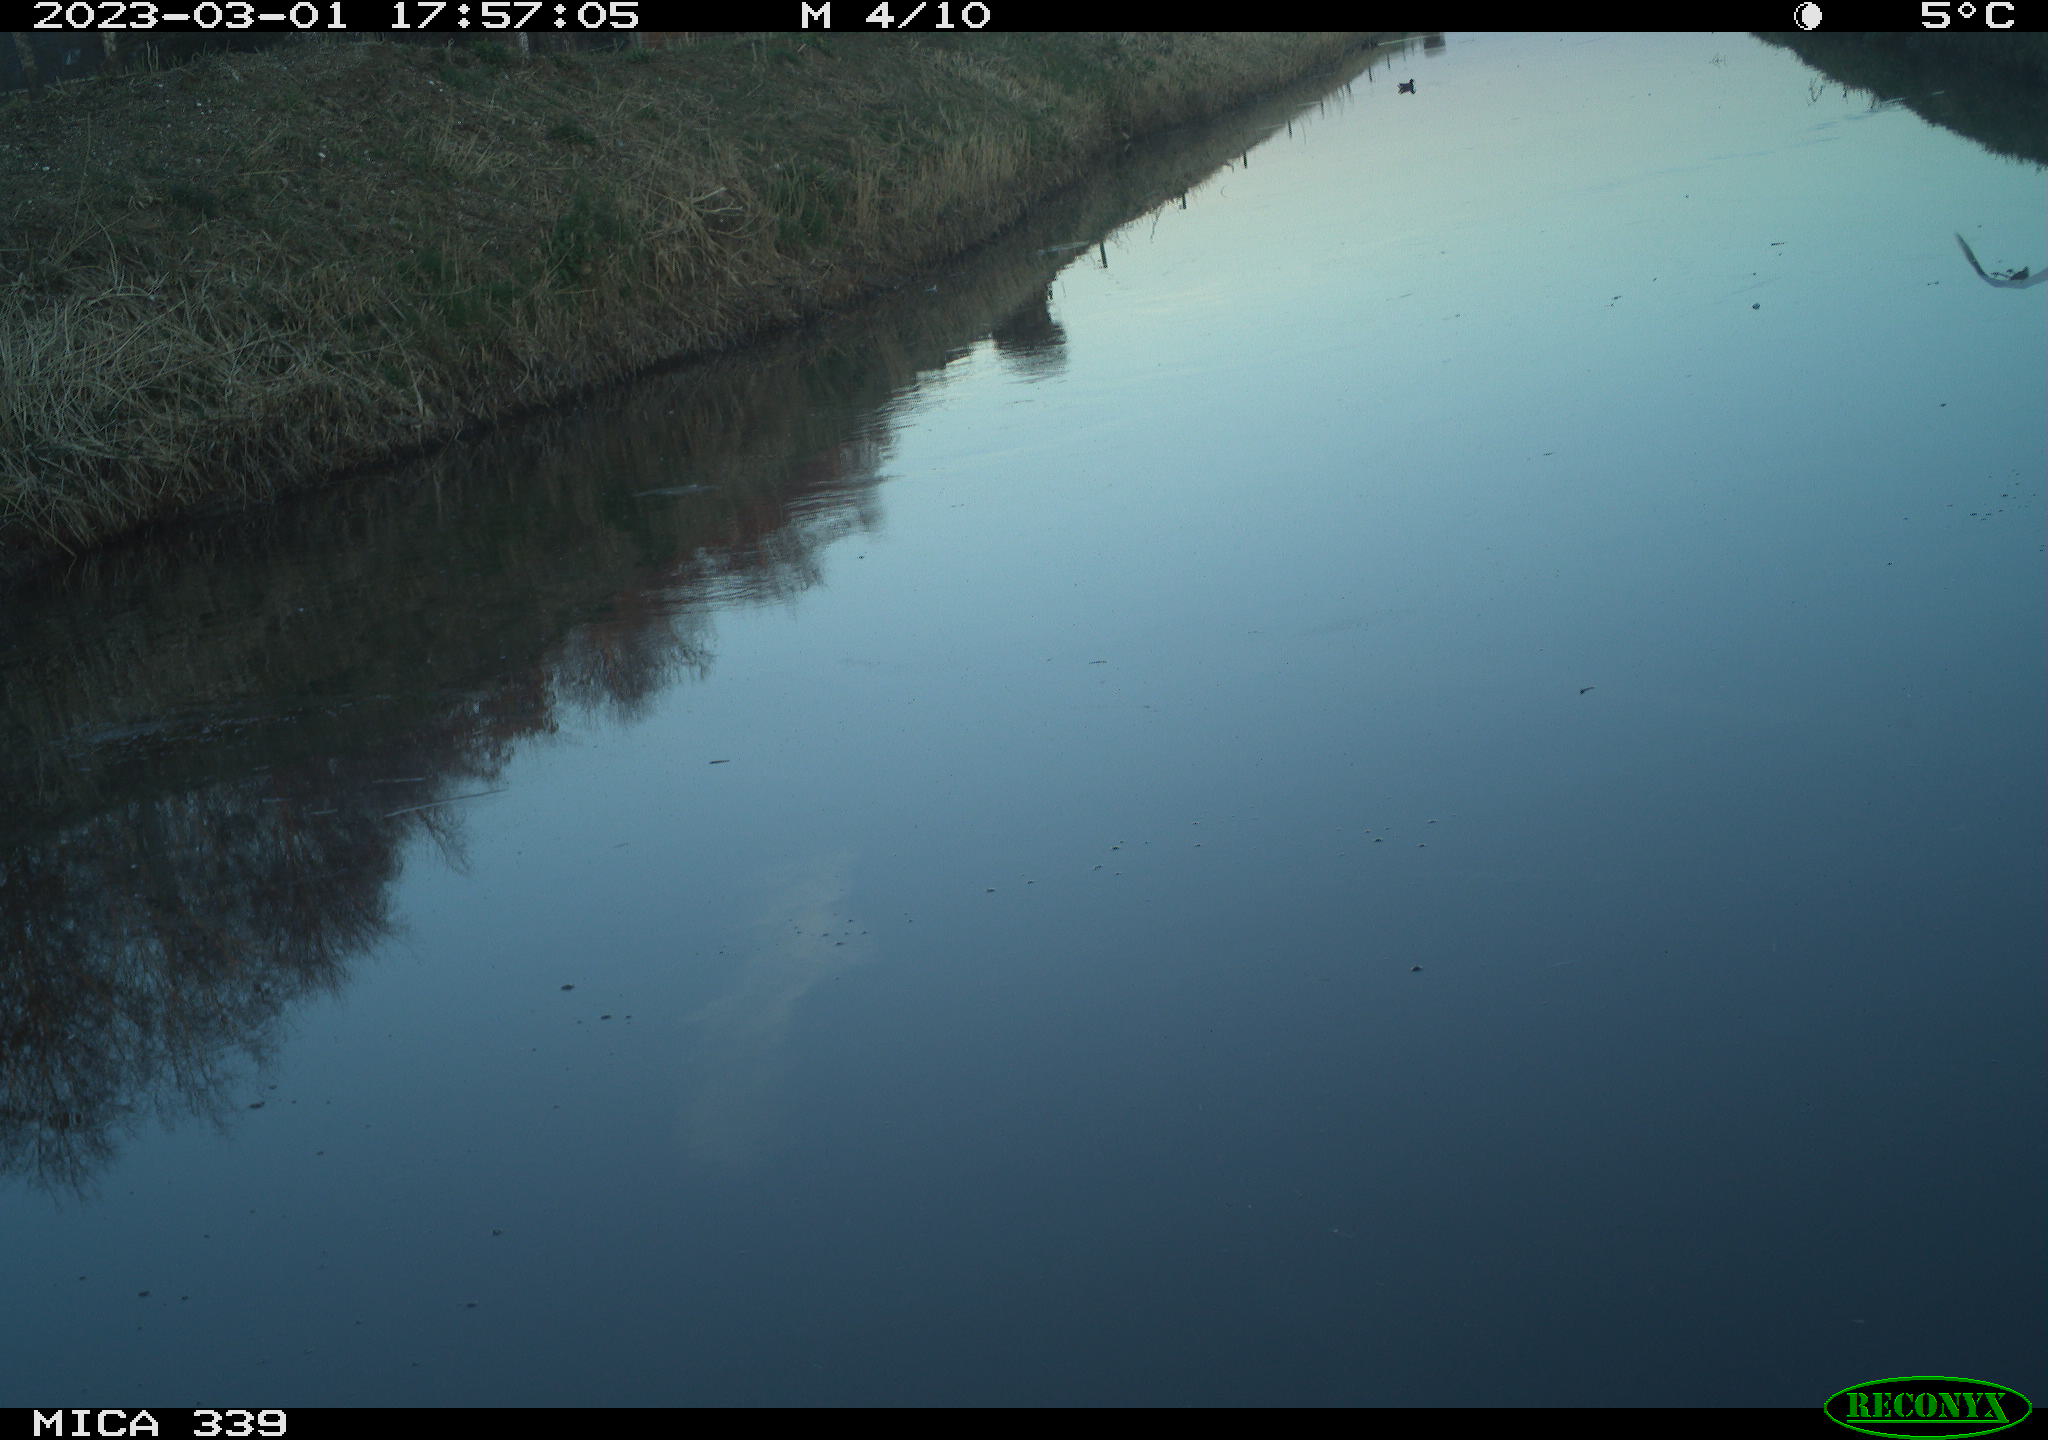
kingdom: Animalia
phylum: Chordata
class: Aves
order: Pelecaniformes
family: Ardeidae
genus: Ardea
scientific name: Ardea alba
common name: Great egret
